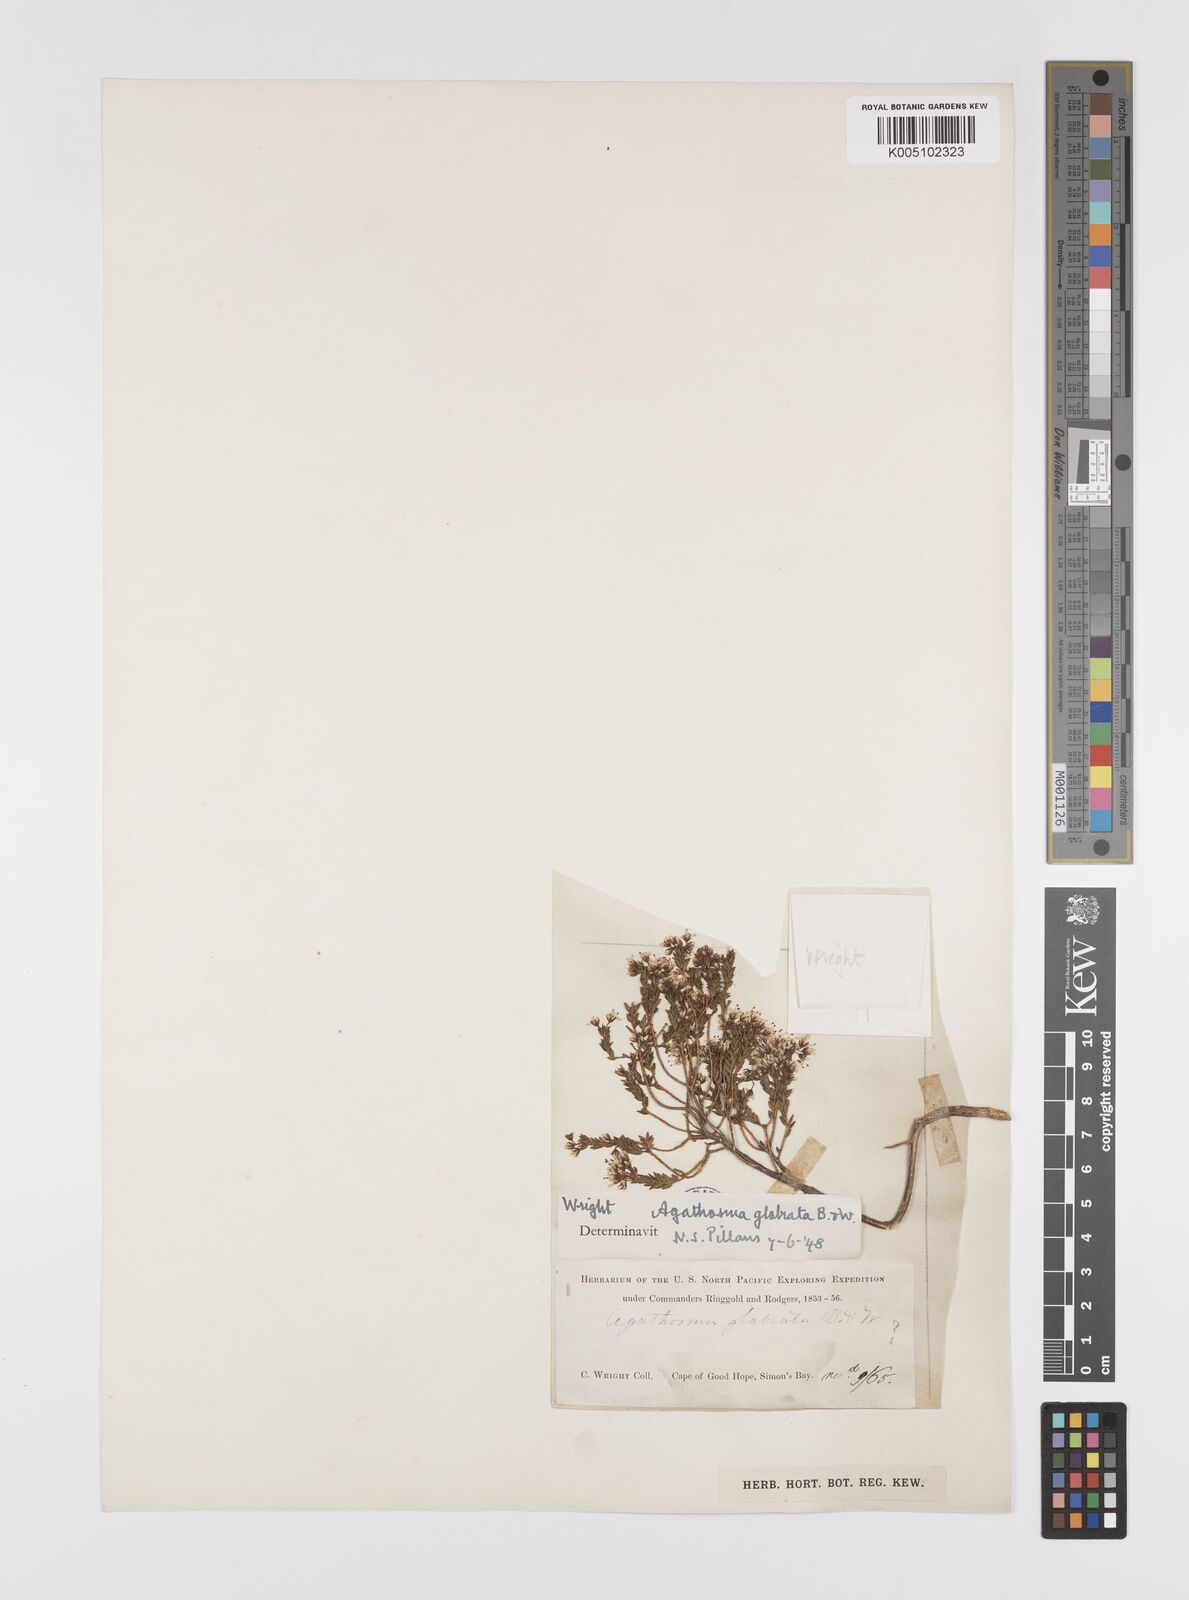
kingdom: Plantae
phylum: Tracheophyta
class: Magnoliopsida
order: Sapindales
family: Rutaceae
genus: Agathosma
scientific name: Agathosma
